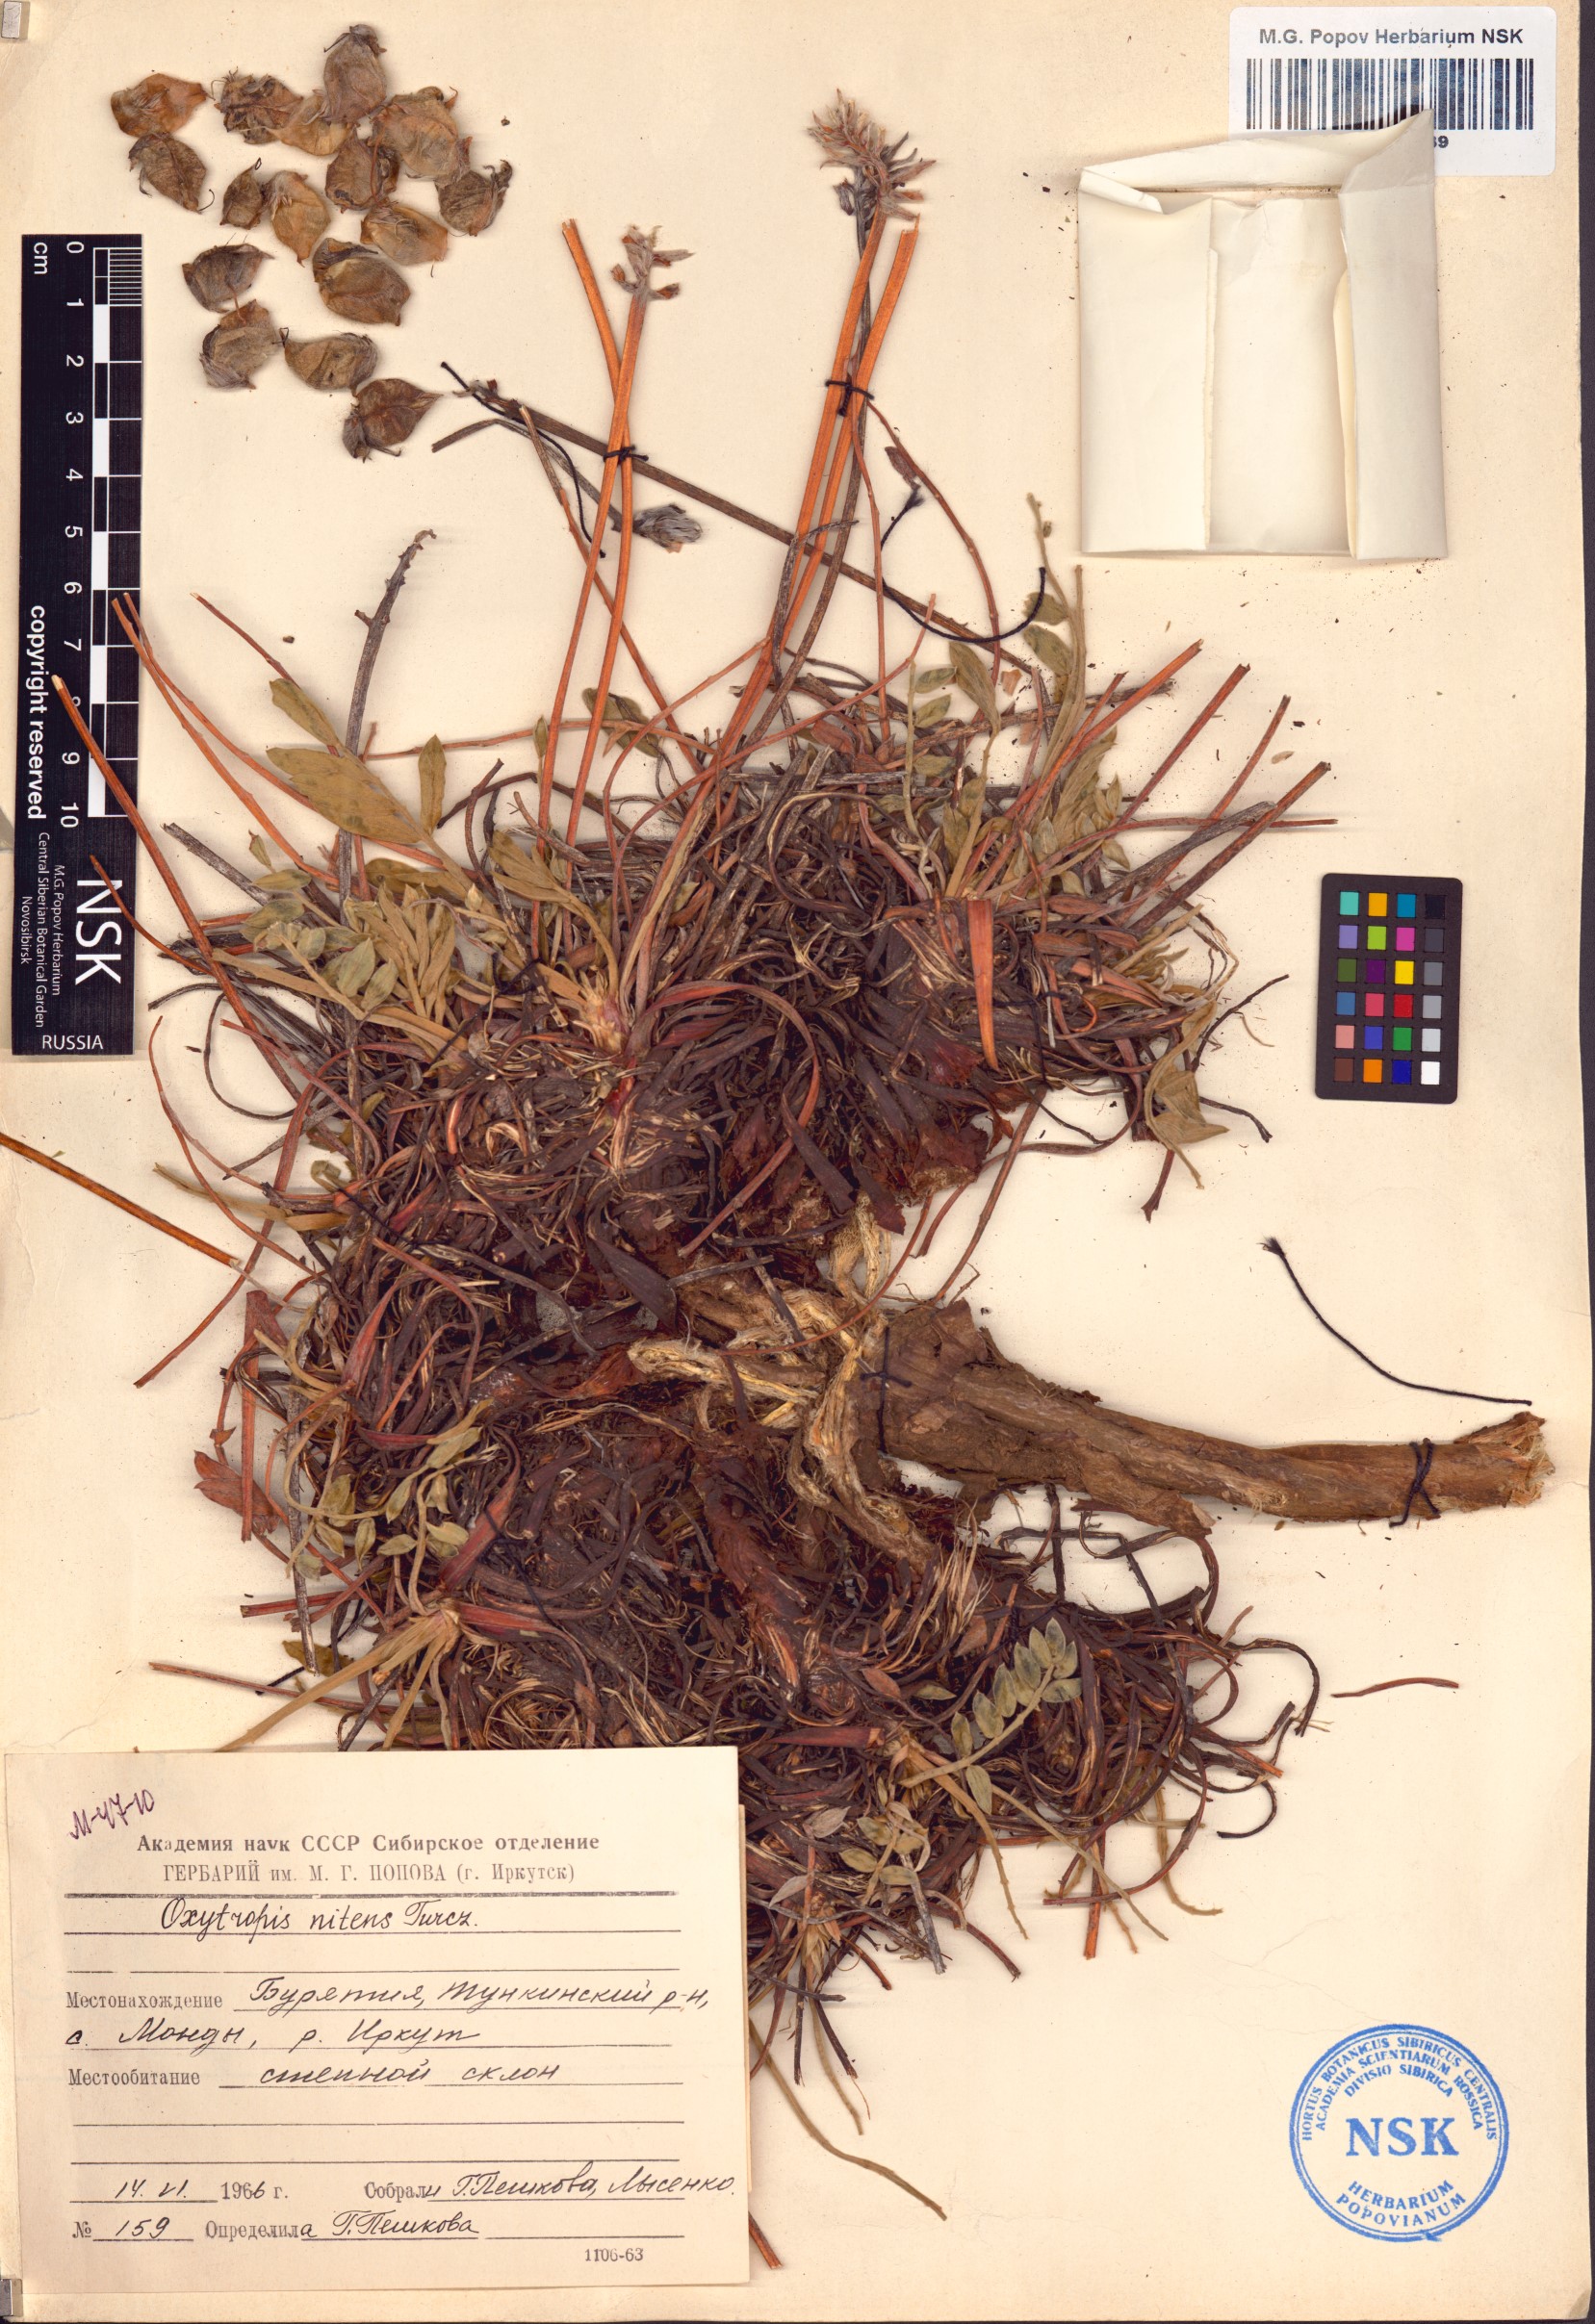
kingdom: Plantae
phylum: Tracheophyta
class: Magnoliopsida
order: Fabales
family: Fabaceae
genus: Oxytropis
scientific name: Oxytropis nitens
